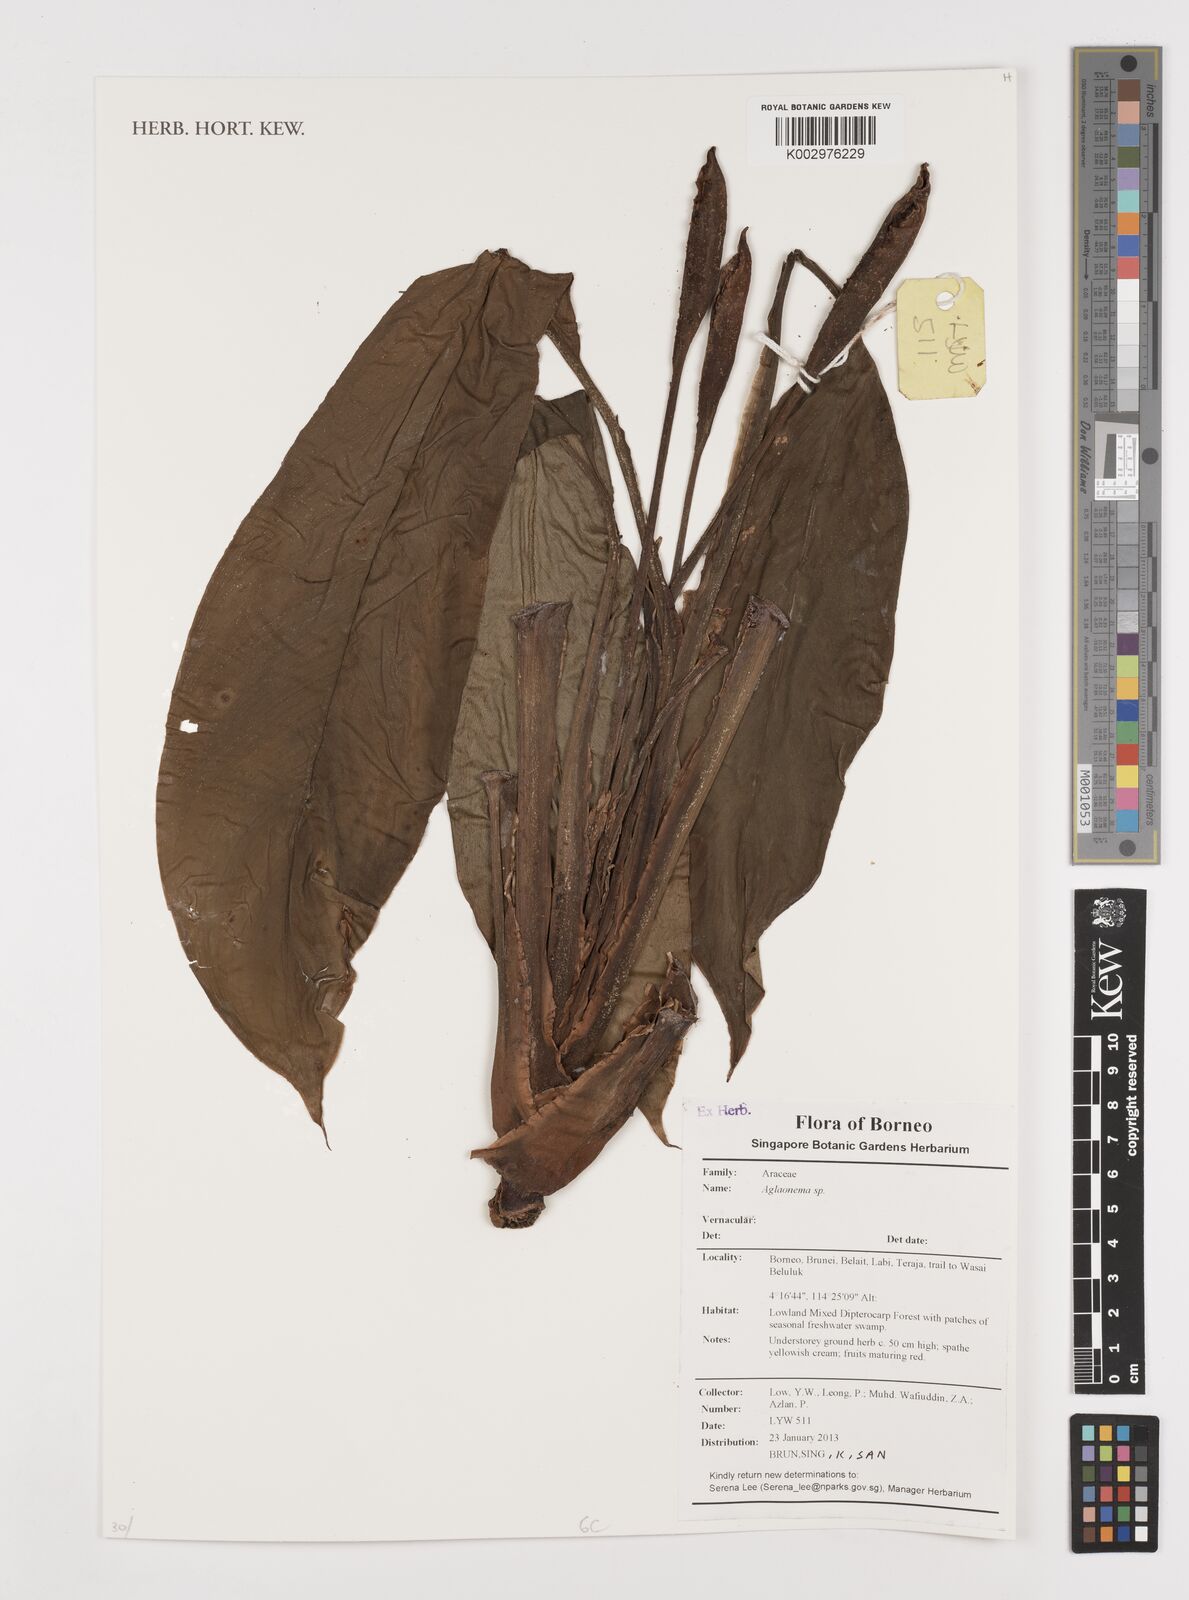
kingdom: Plantae
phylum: Tracheophyta
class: Liliopsida
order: Alismatales
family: Araceae
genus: Aglaonema
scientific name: Aglaonema
